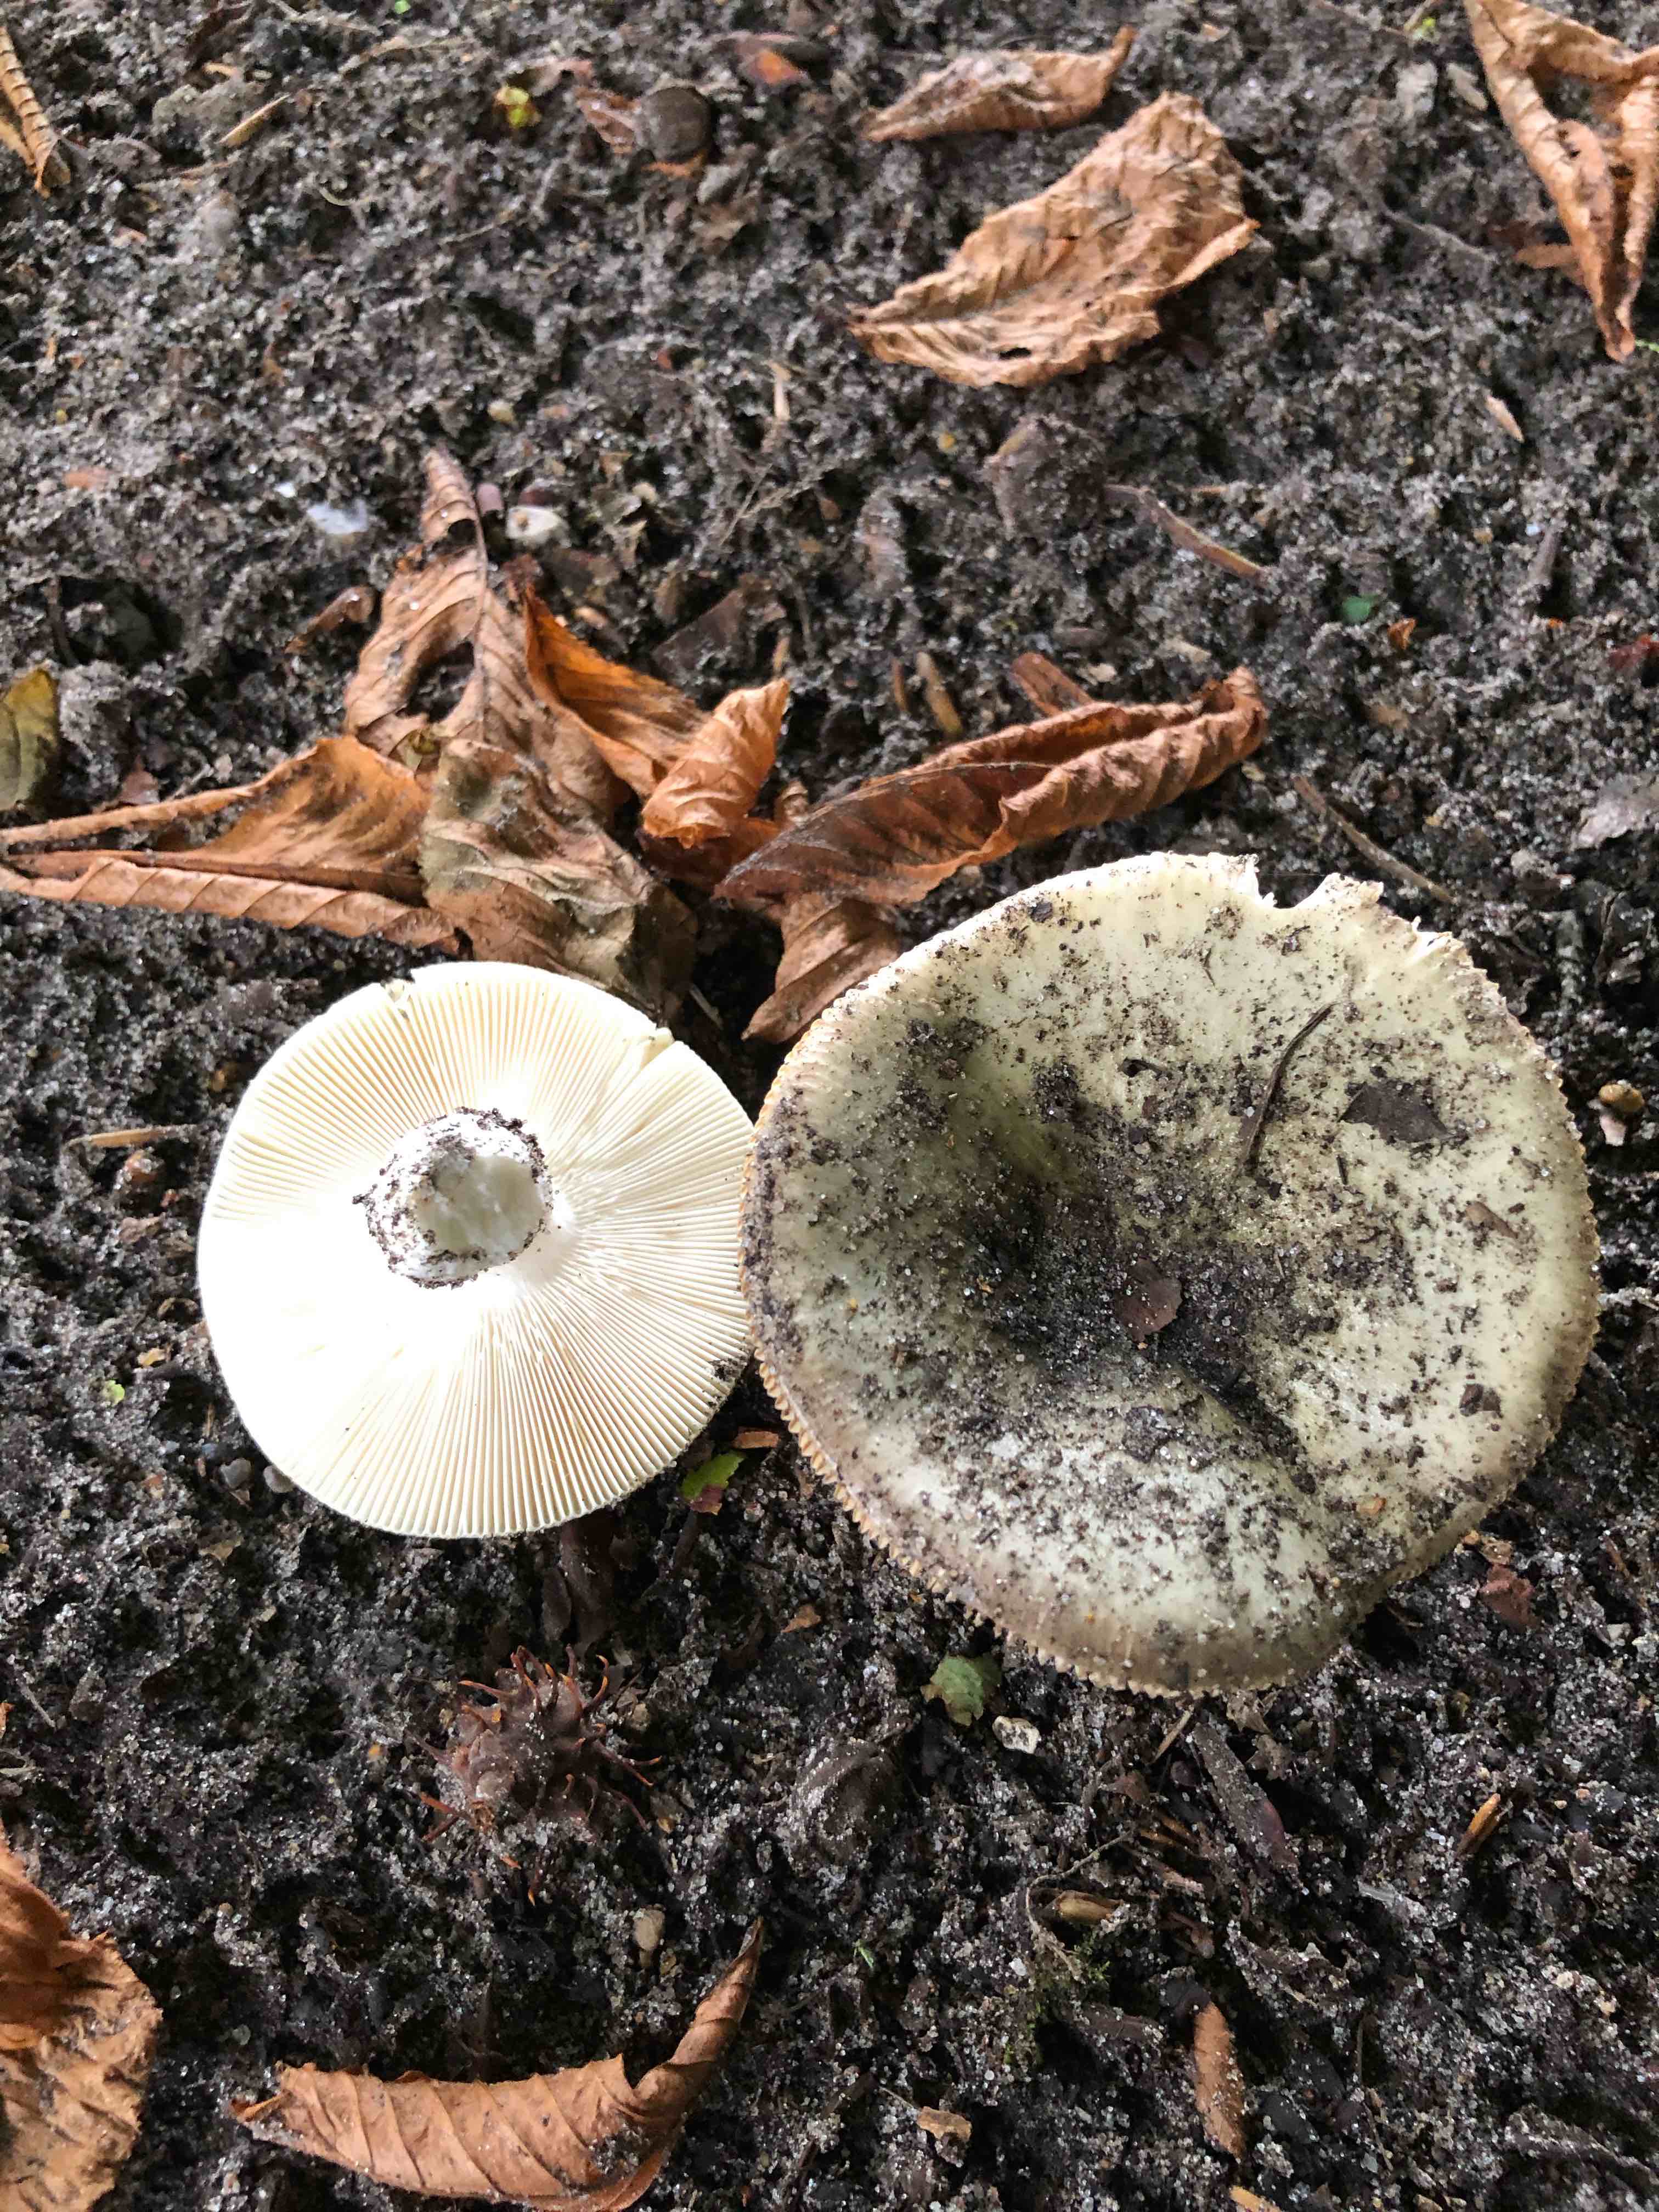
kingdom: Fungi
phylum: Basidiomycota
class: Agaricomycetes
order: Russulales
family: Russulaceae
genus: Russula
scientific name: Russula aeruginea
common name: græsgrøn skørhat
